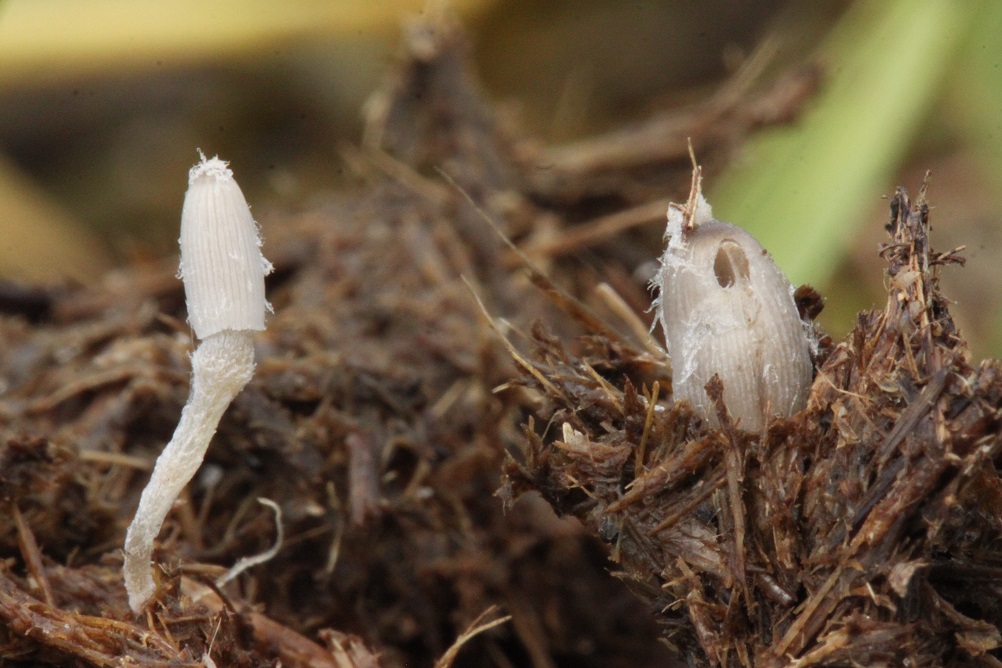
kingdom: Fungi
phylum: Basidiomycota
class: Agaricomycetes
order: Agaricales
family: Psathyrellaceae
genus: Coprinopsis
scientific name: Coprinopsis radiata
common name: lille gødnings-blækhat
